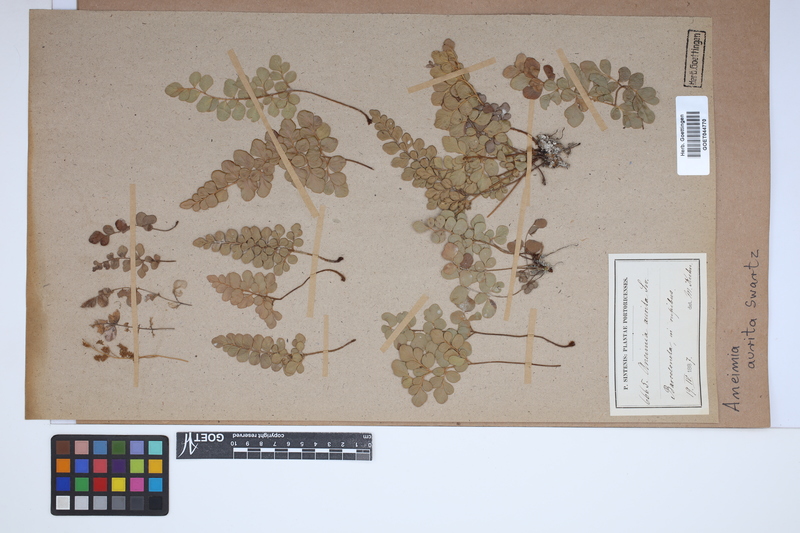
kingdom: Plantae
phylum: Tracheophyta
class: Polypodiopsida
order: Schizaeales
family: Anemiaceae
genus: Anemia
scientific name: Anemia aurita
